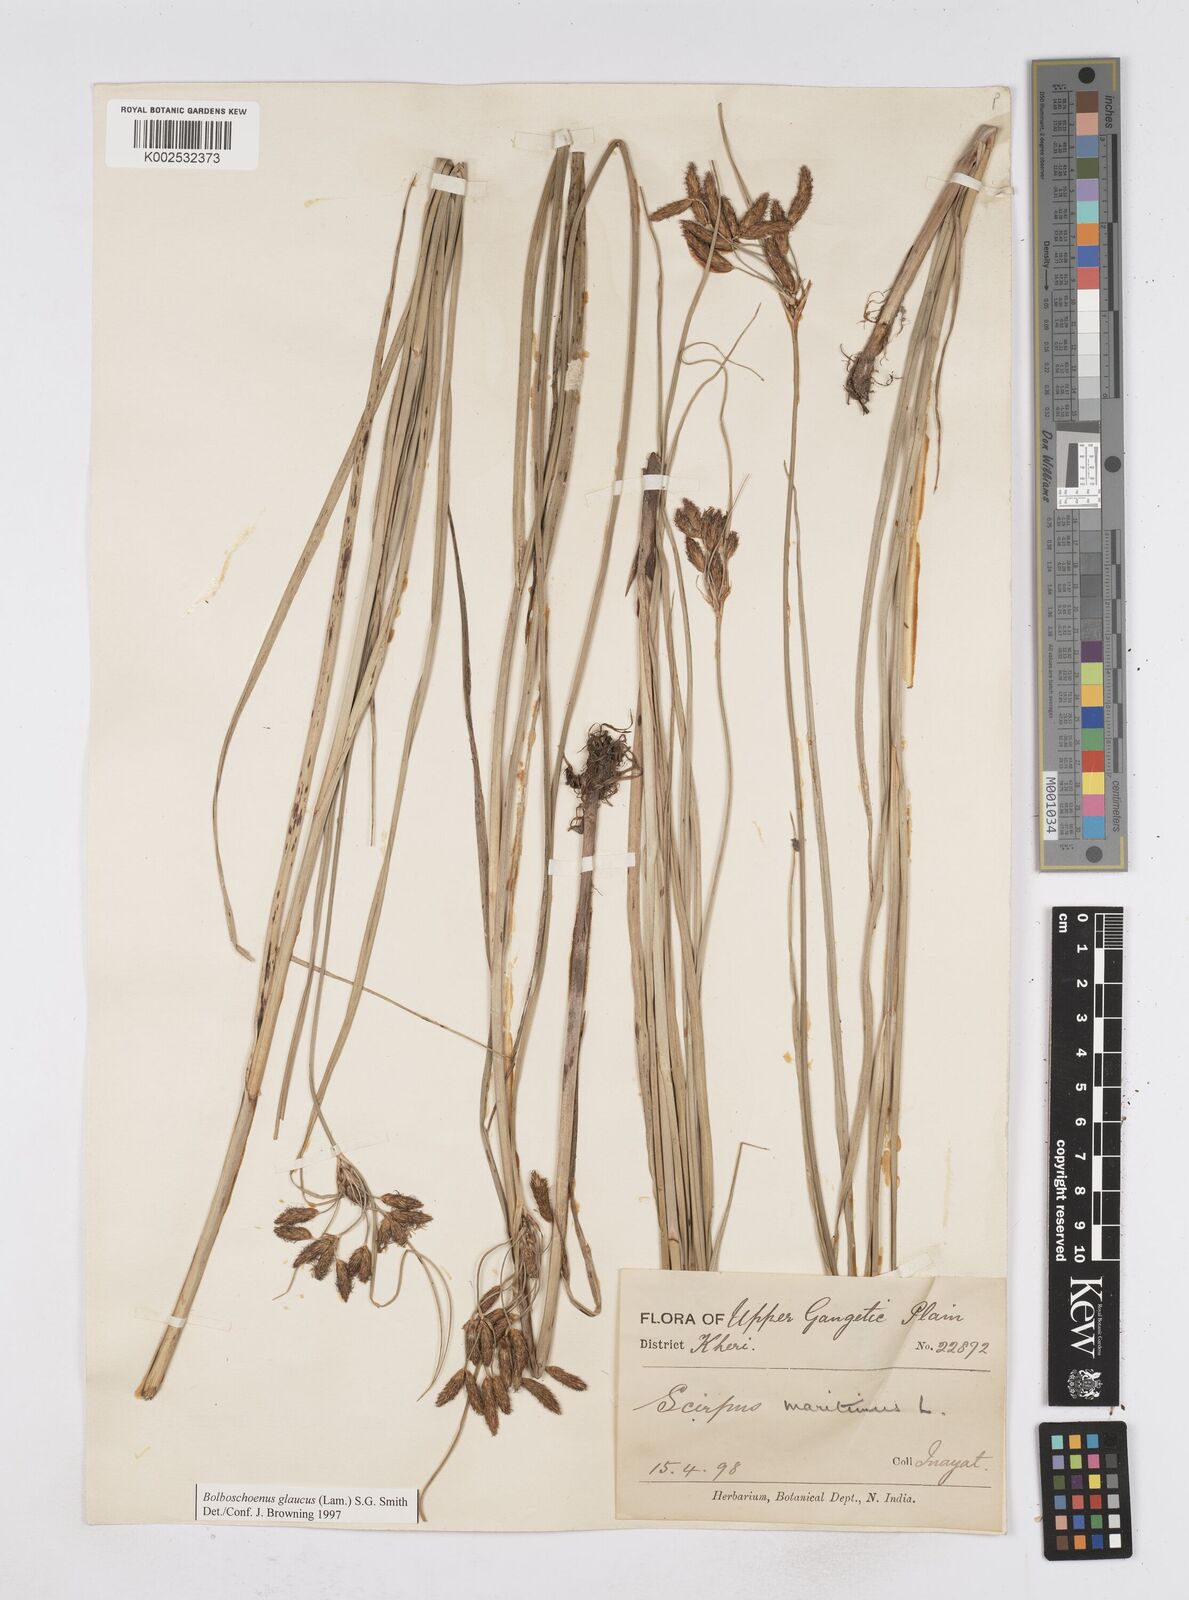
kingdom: Plantae
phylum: Tracheophyta
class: Liliopsida
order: Poales
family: Cyperaceae
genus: Bolboschoenus
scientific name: Bolboschoenus maritimus
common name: Sea club-rush
